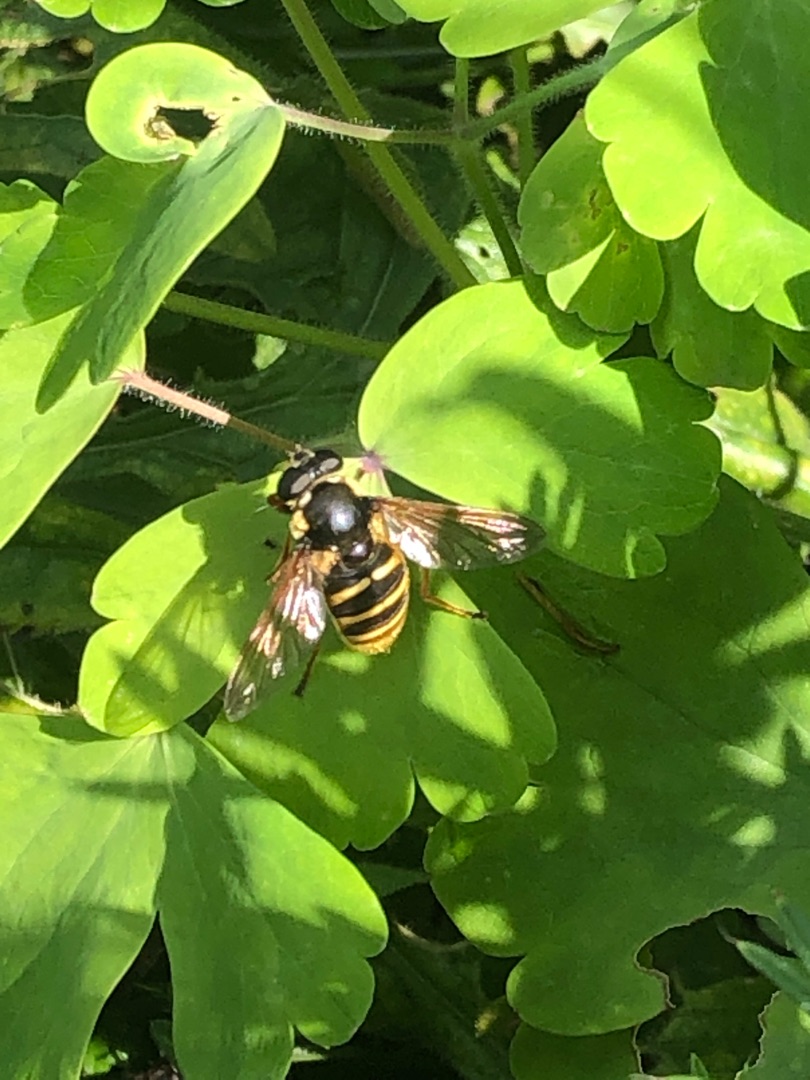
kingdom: Animalia
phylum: Arthropoda
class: Insecta
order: Diptera
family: Syrphidae
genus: Sericomyia
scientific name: Sericomyia silentis
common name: Tørve-silkesvirreflue
